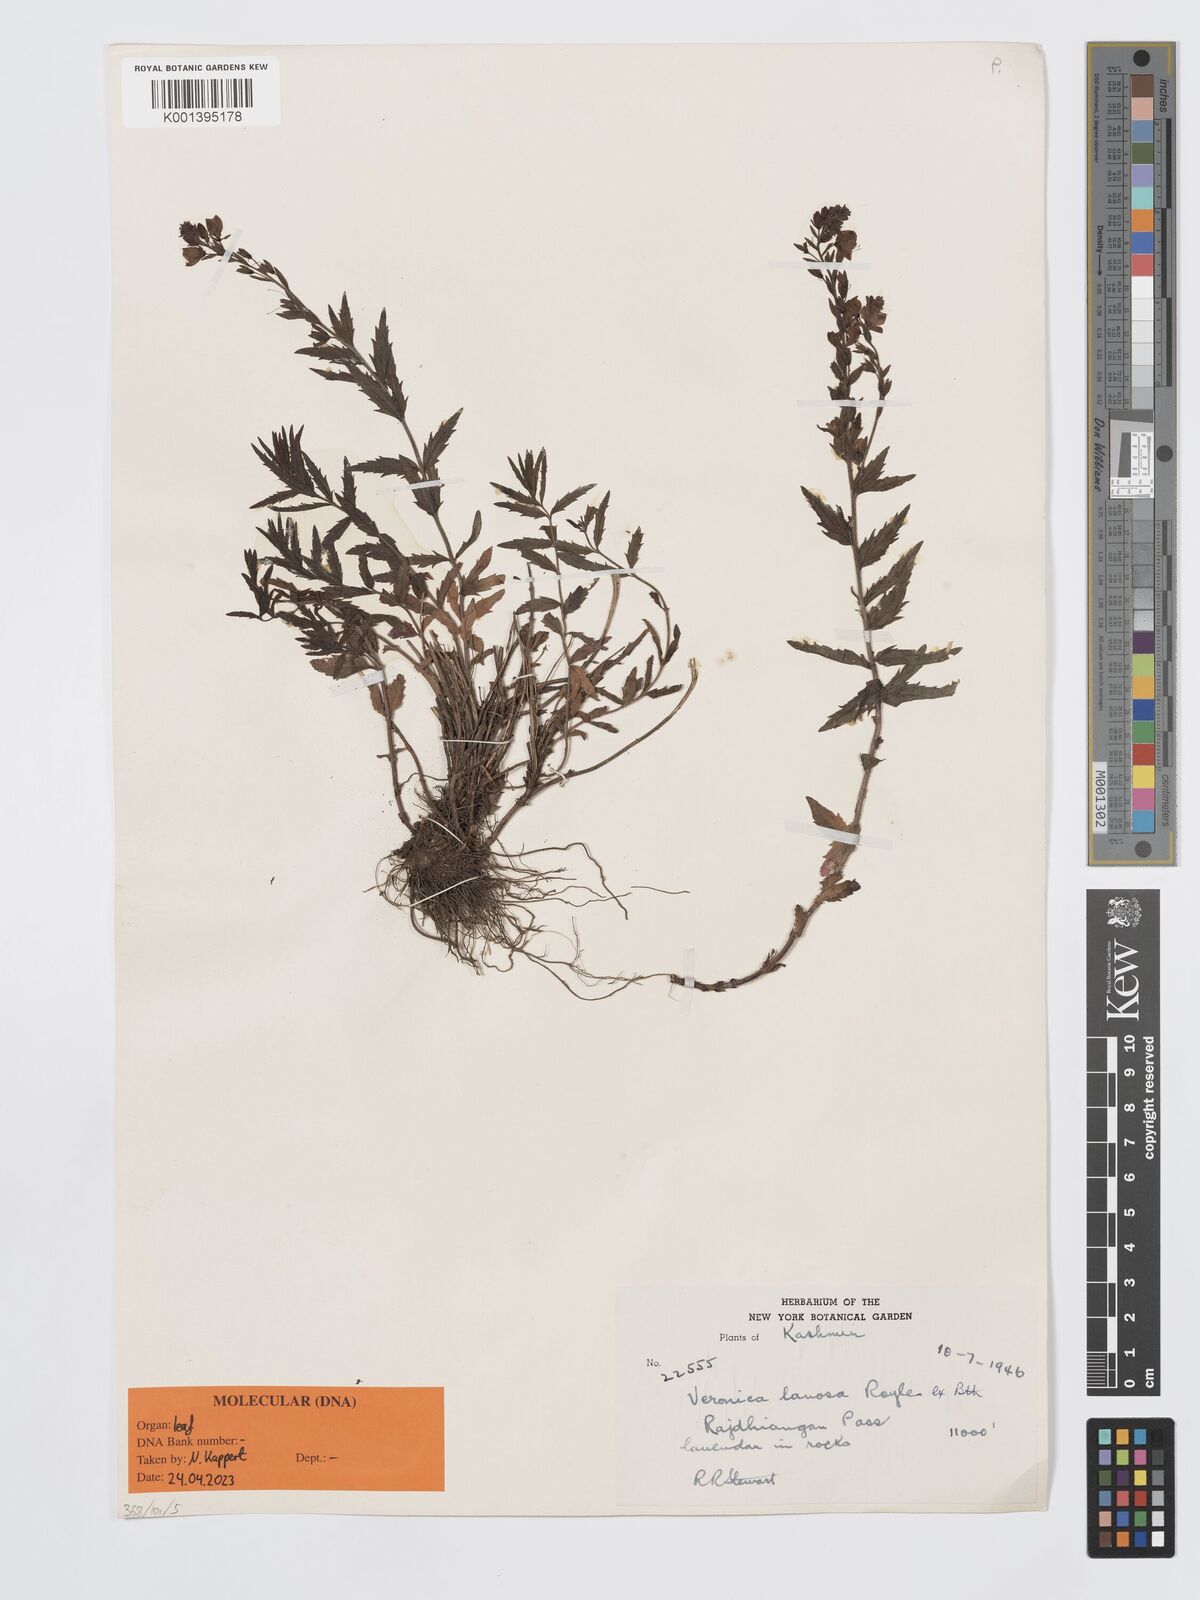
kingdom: Plantae
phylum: Tracheophyta
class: Magnoliopsida
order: Lamiales
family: Plantaginaceae
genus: Veronica
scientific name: Veronica lanosa
